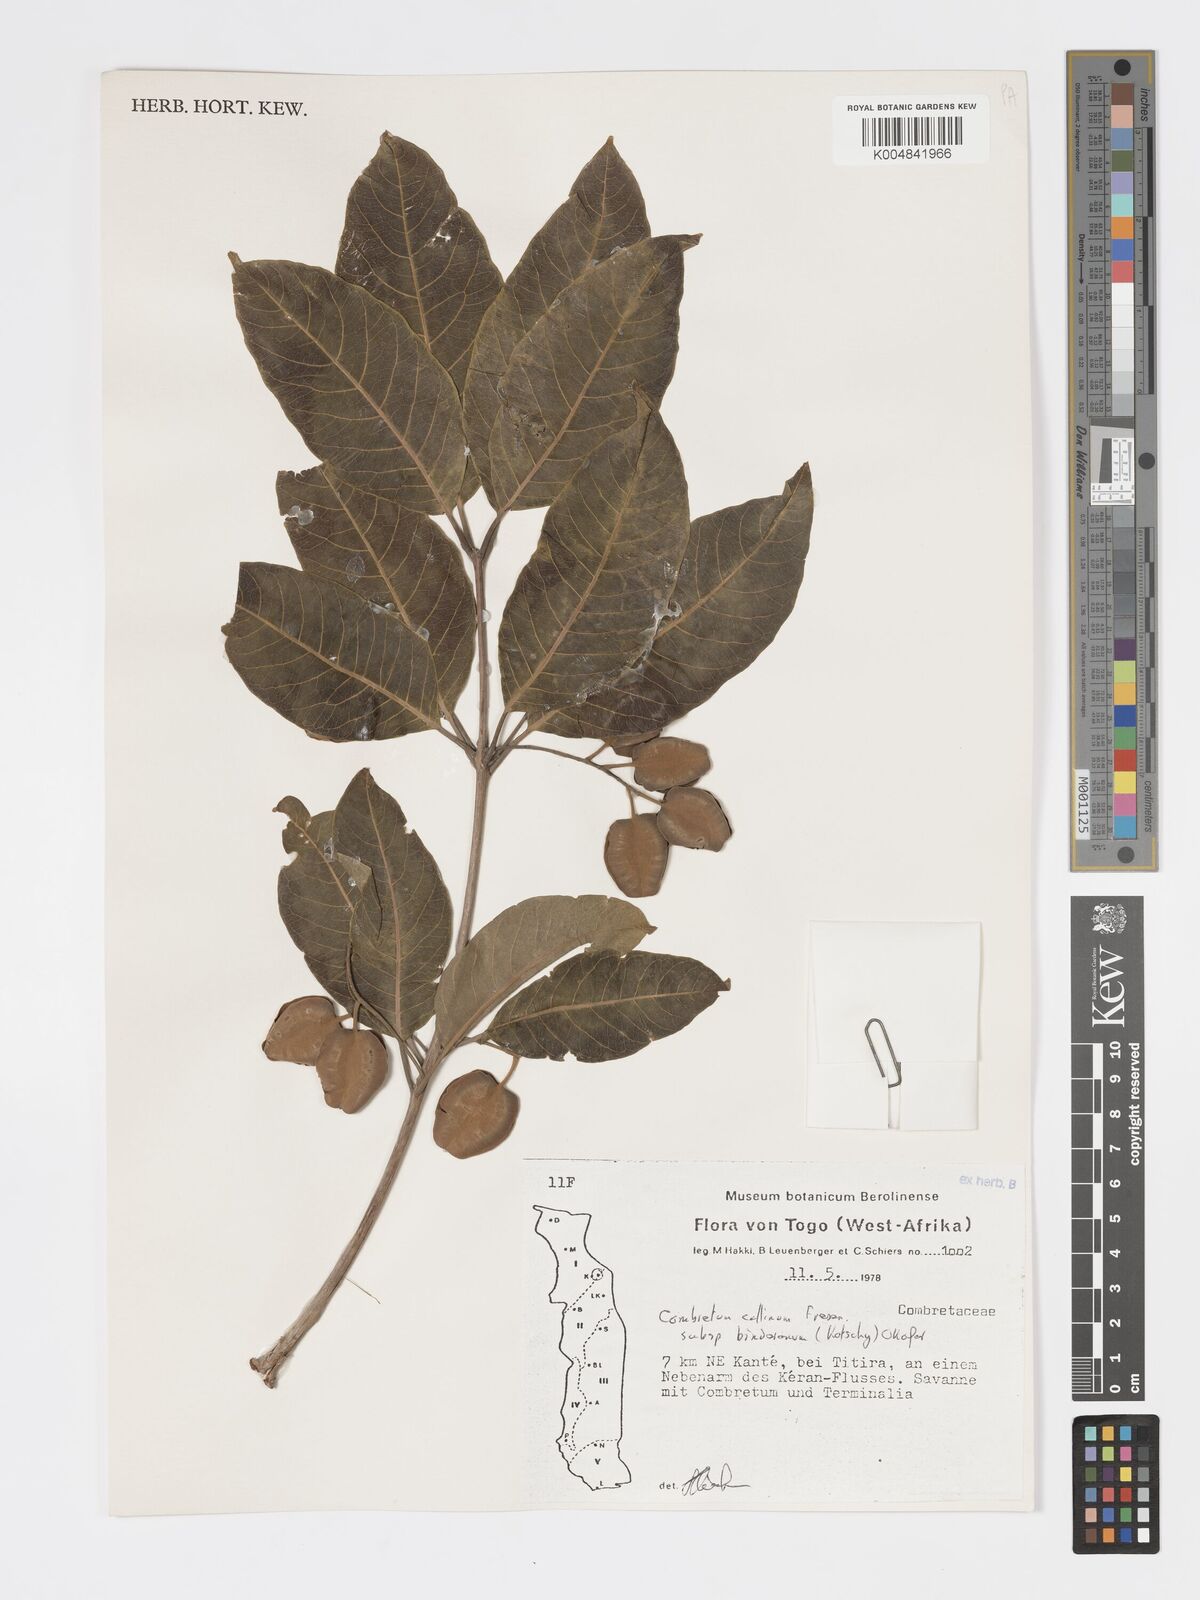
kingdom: Plantae
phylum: Tracheophyta
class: Magnoliopsida
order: Myrtales
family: Combretaceae
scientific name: Combretaceae
